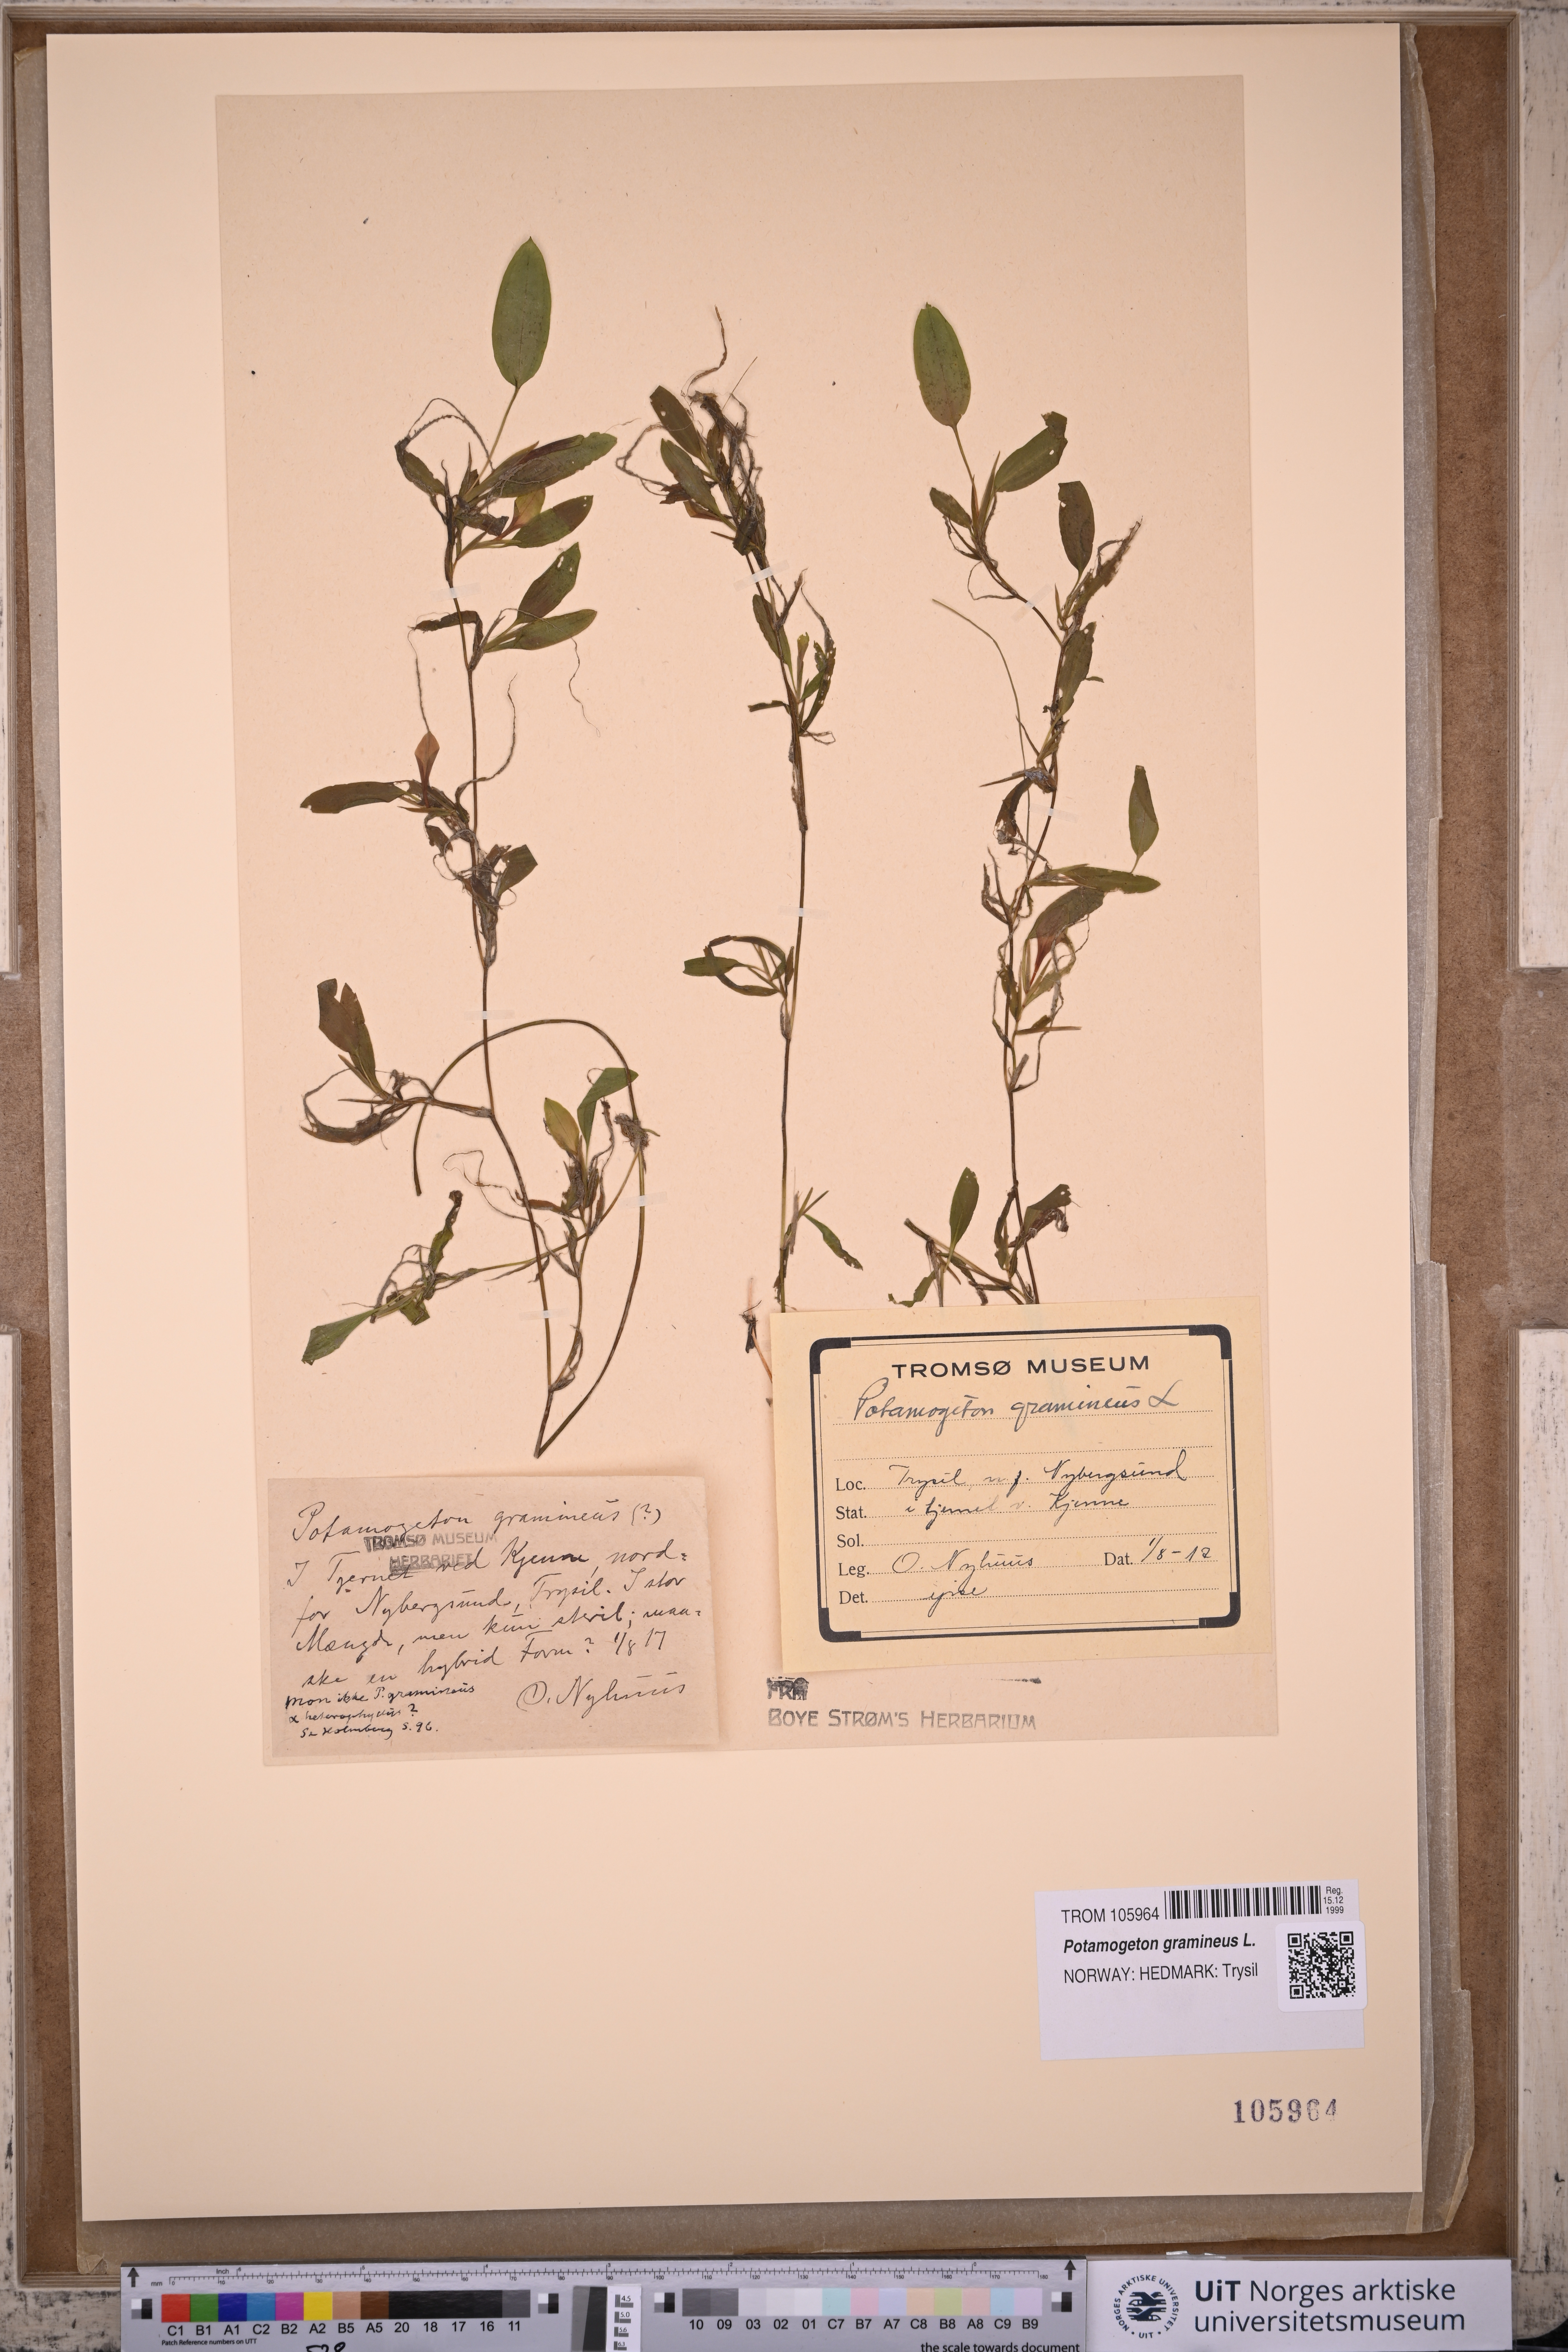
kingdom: Plantae
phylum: Tracheophyta
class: Liliopsida
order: Alismatales
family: Potamogetonaceae
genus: Potamogeton
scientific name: Potamogeton gramineus
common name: Various-leaved pondweed
